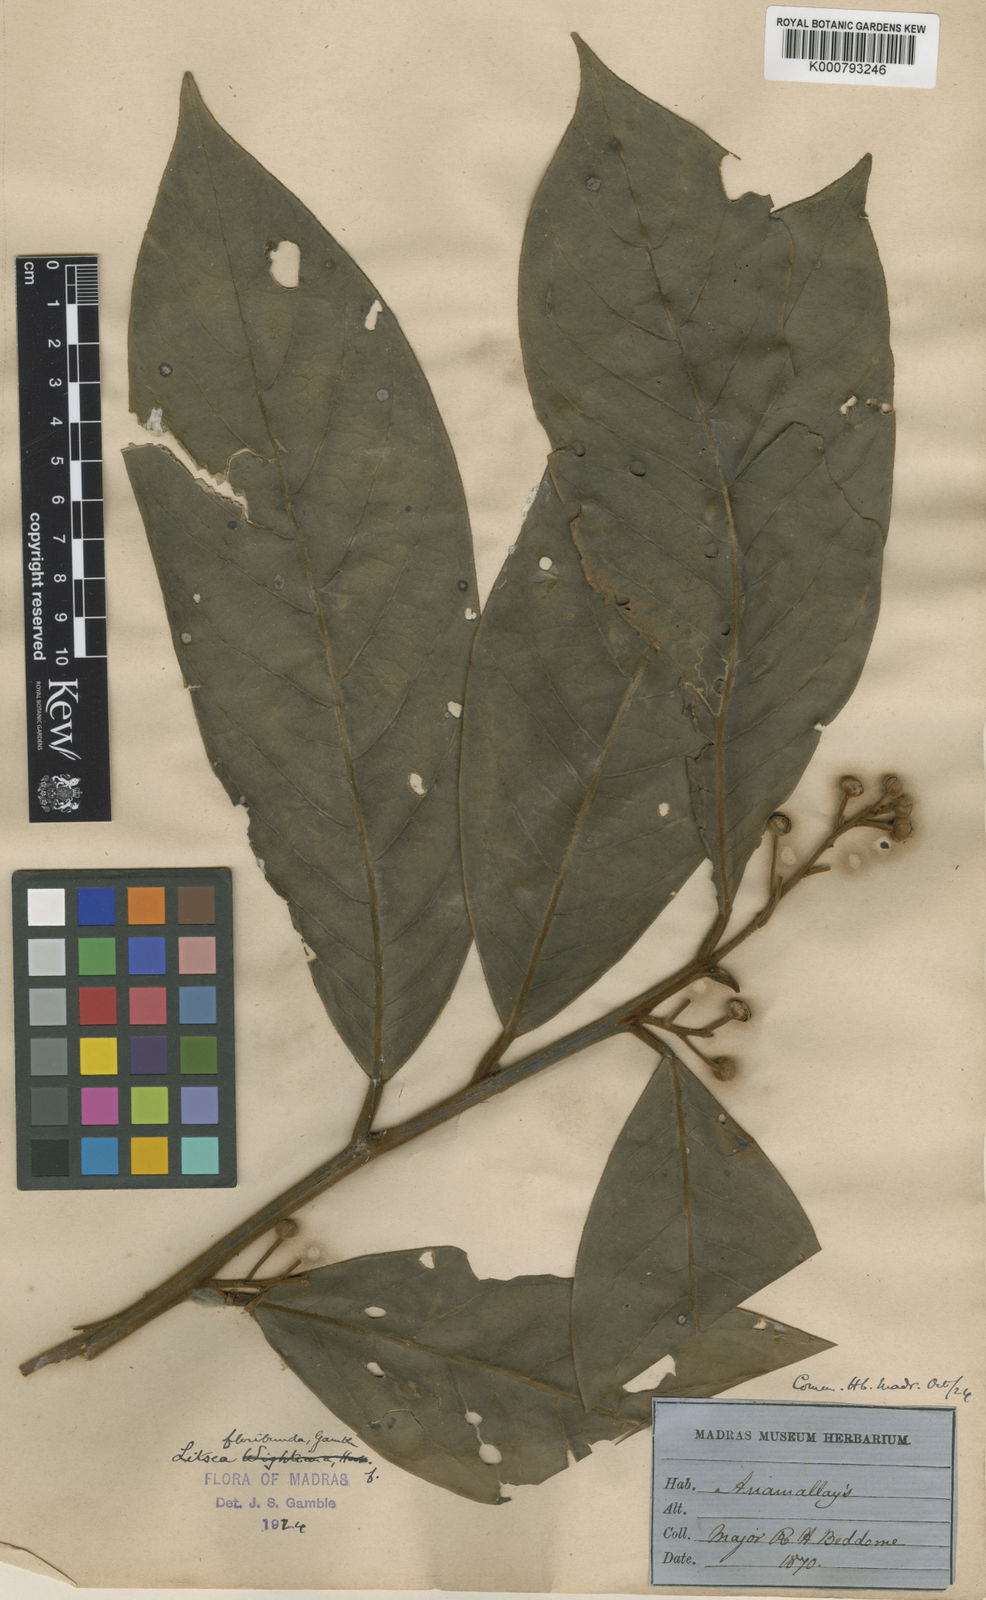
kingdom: Plantae
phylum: Tracheophyta
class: Magnoliopsida
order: Laurales
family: Lauraceae
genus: Litsea
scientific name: Litsea floribunda
